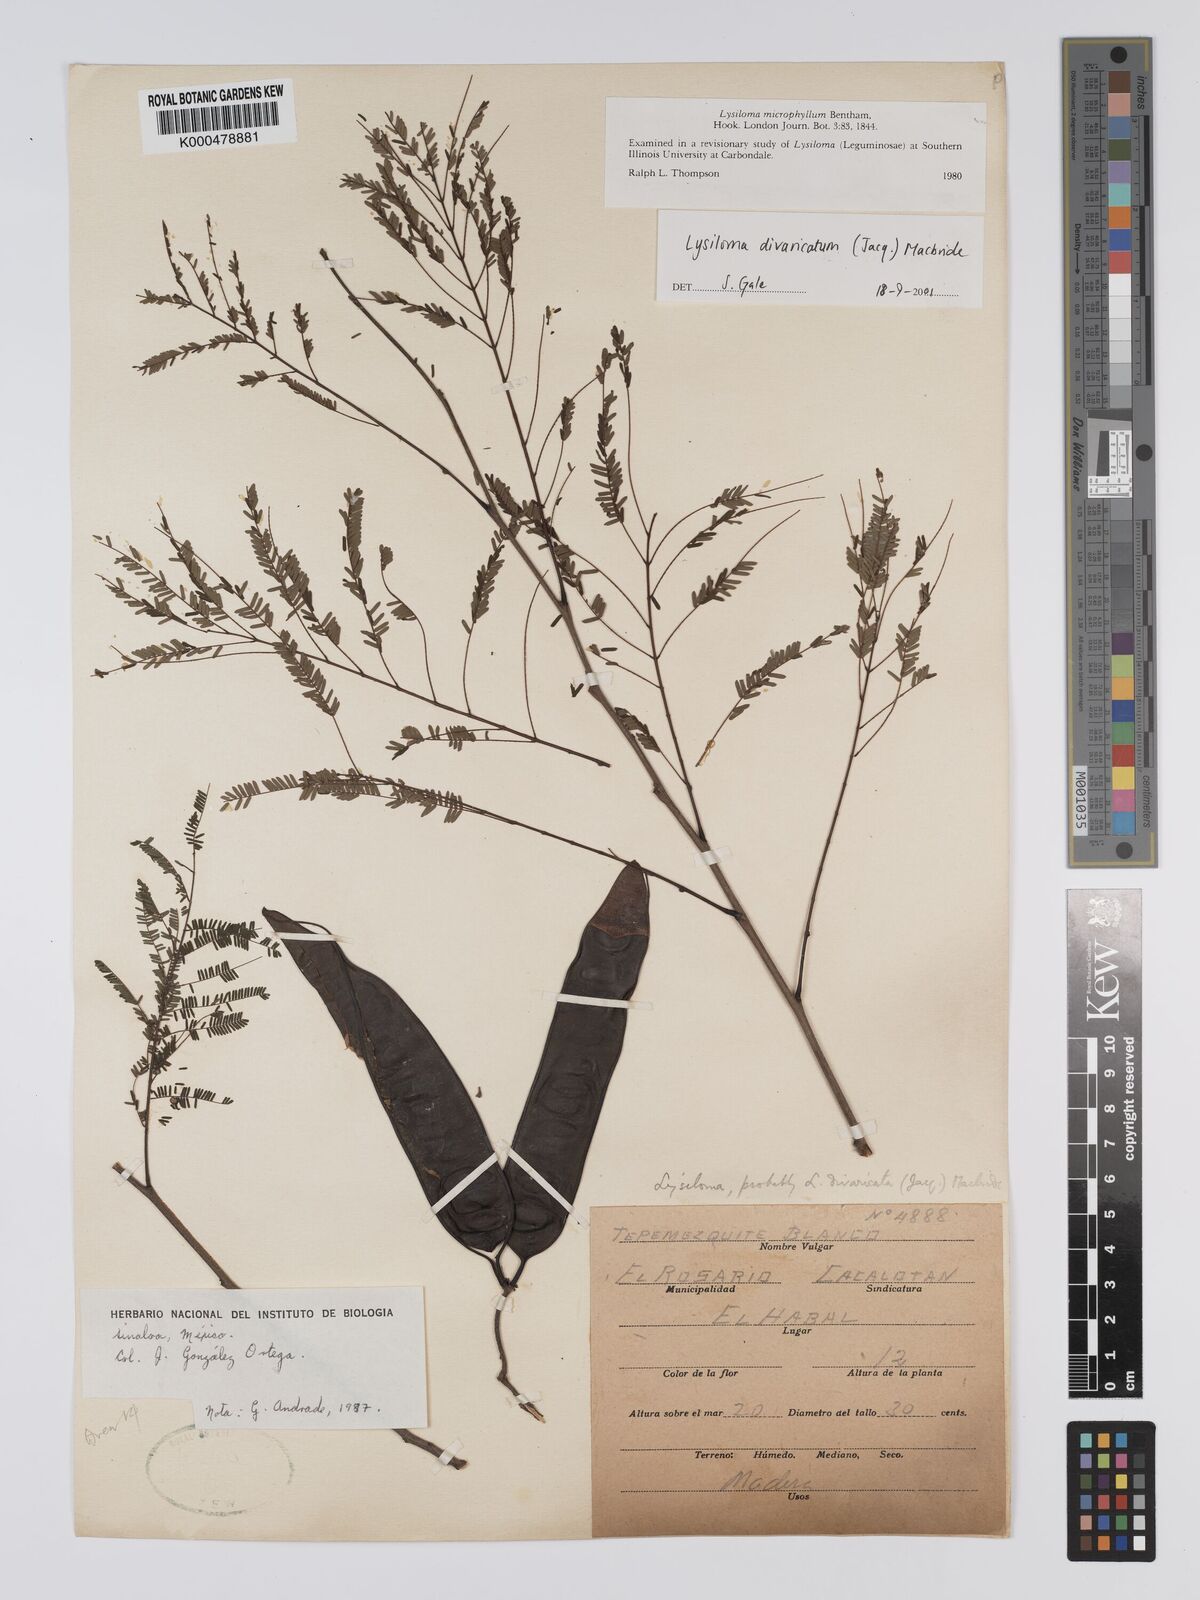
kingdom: Plantae
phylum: Tracheophyta
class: Magnoliopsida
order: Fabales
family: Fabaceae
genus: Lysiloma
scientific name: Lysiloma divaricatum
